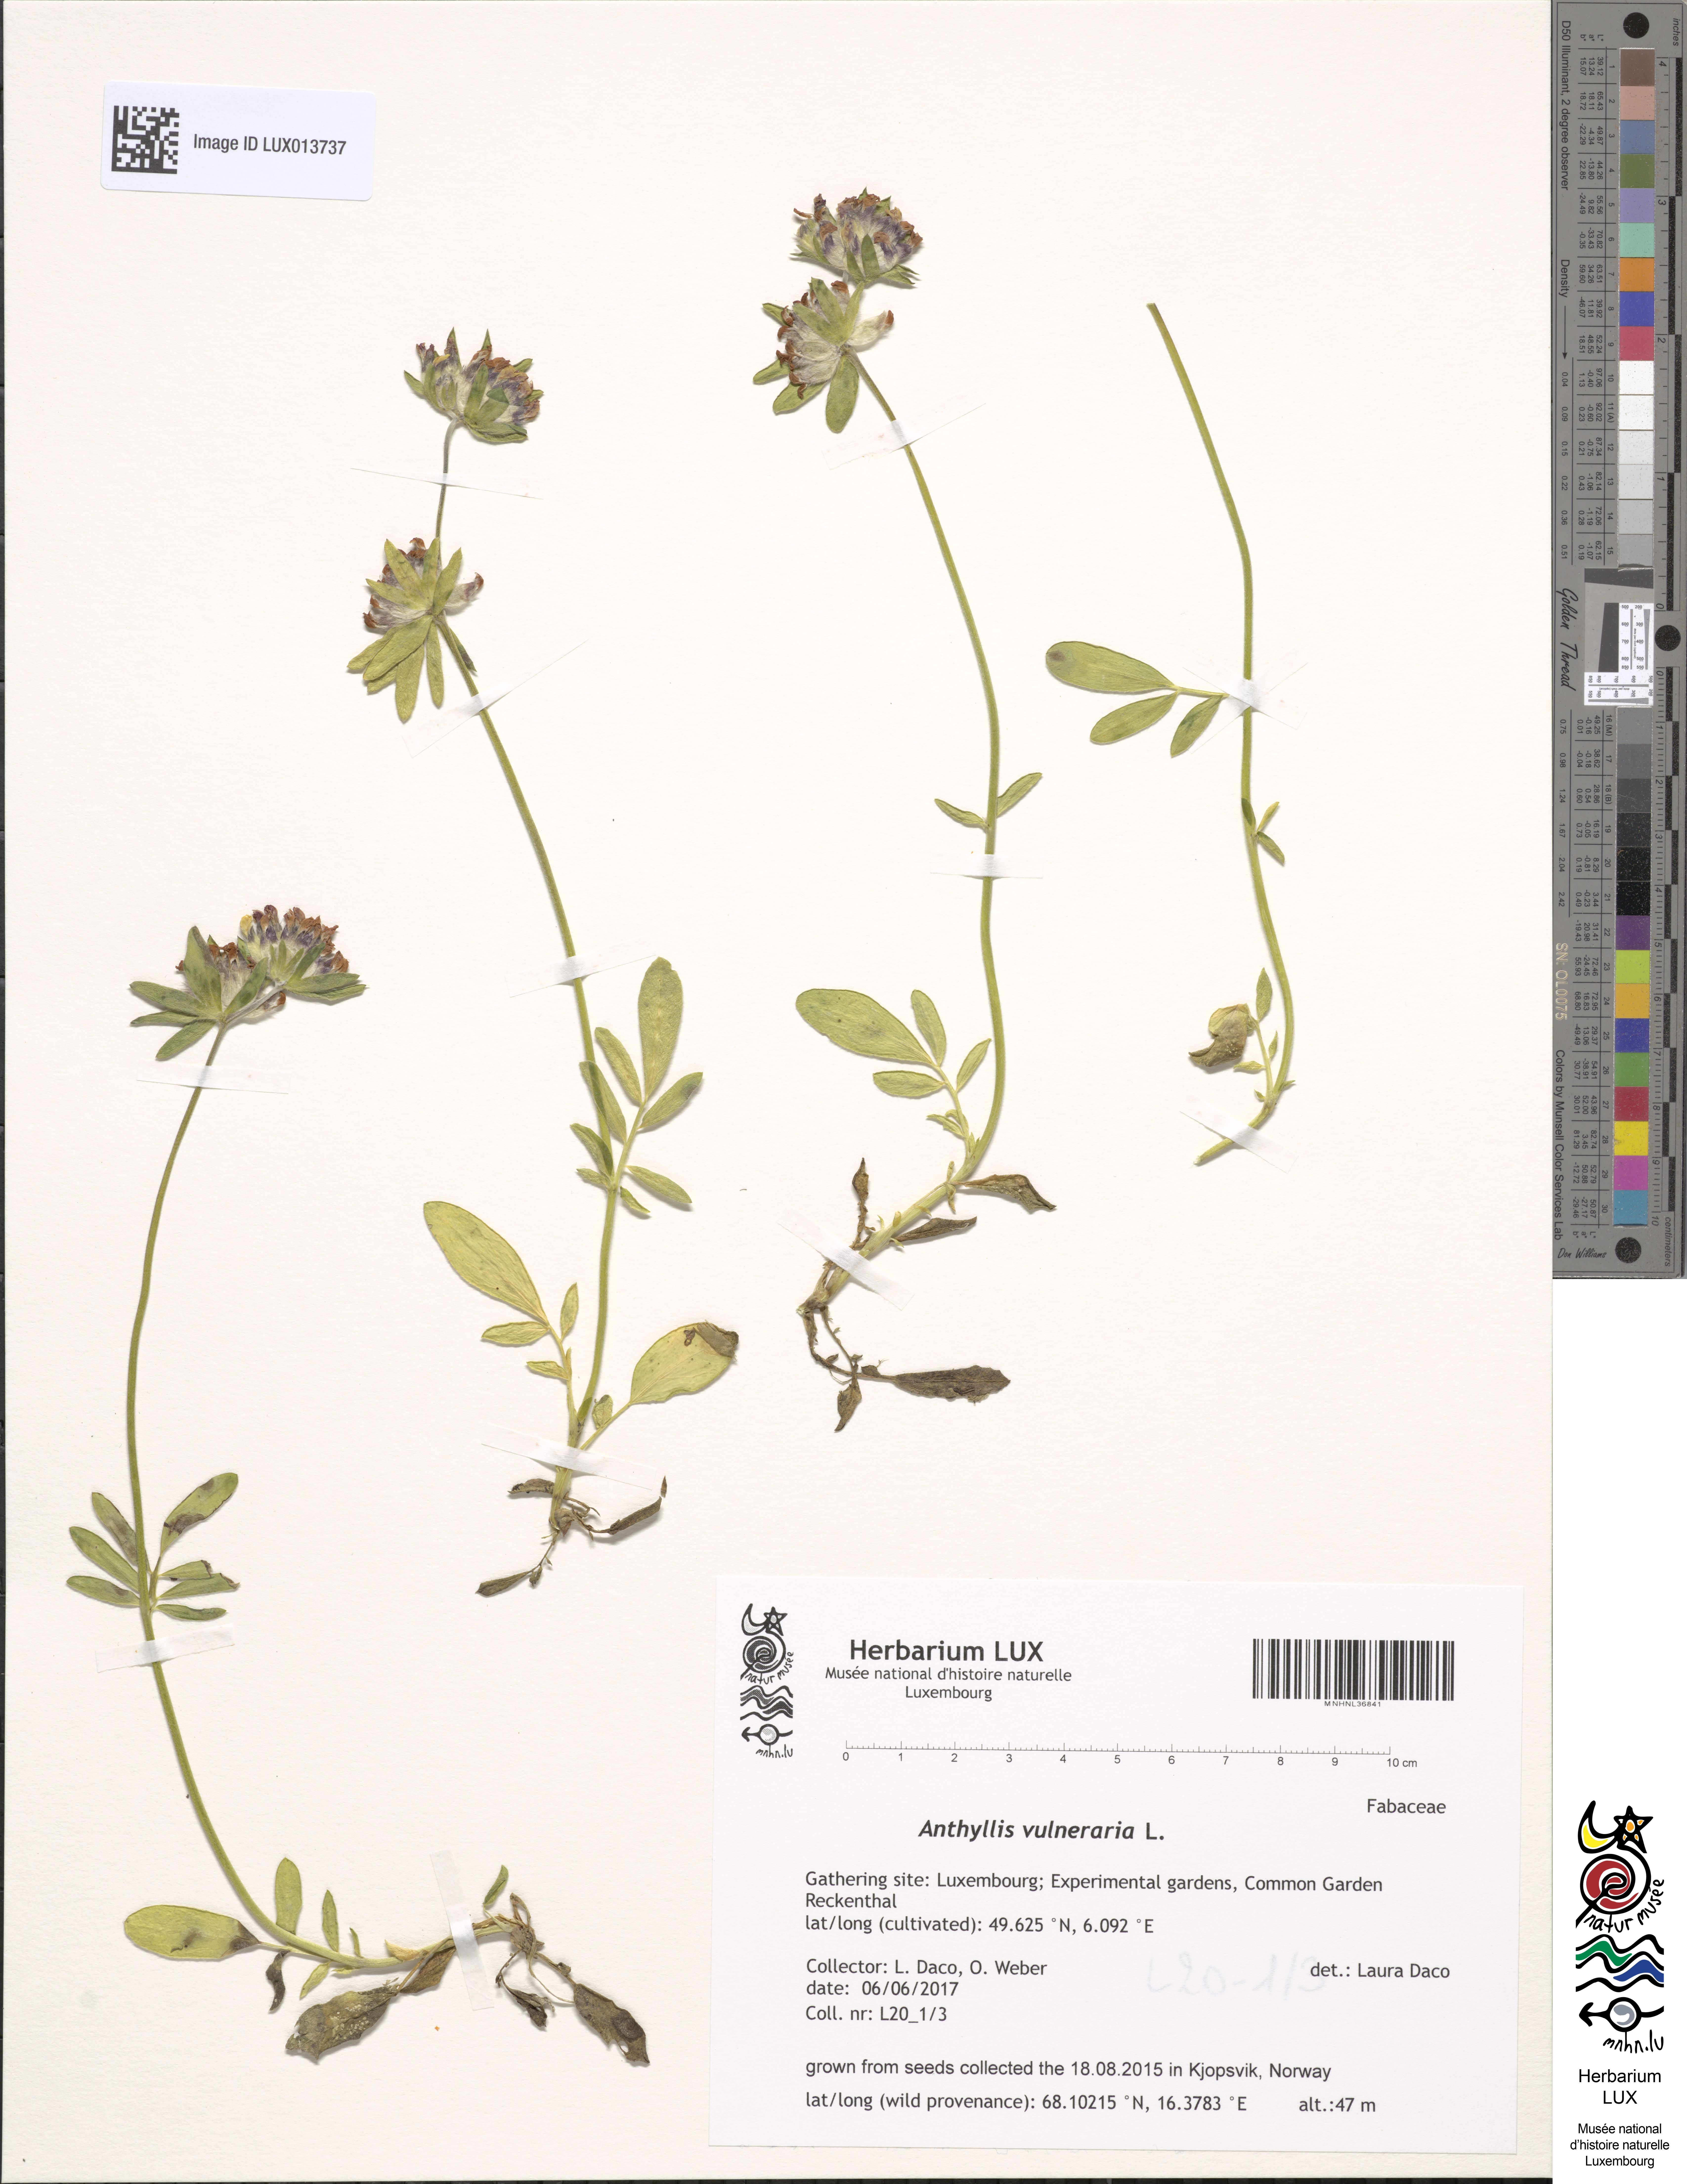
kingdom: Plantae
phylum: Tracheophyta
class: Magnoliopsida
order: Fabales
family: Fabaceae
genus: Anthyllis
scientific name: Anthyllis vulneraria
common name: Kidney vetch
